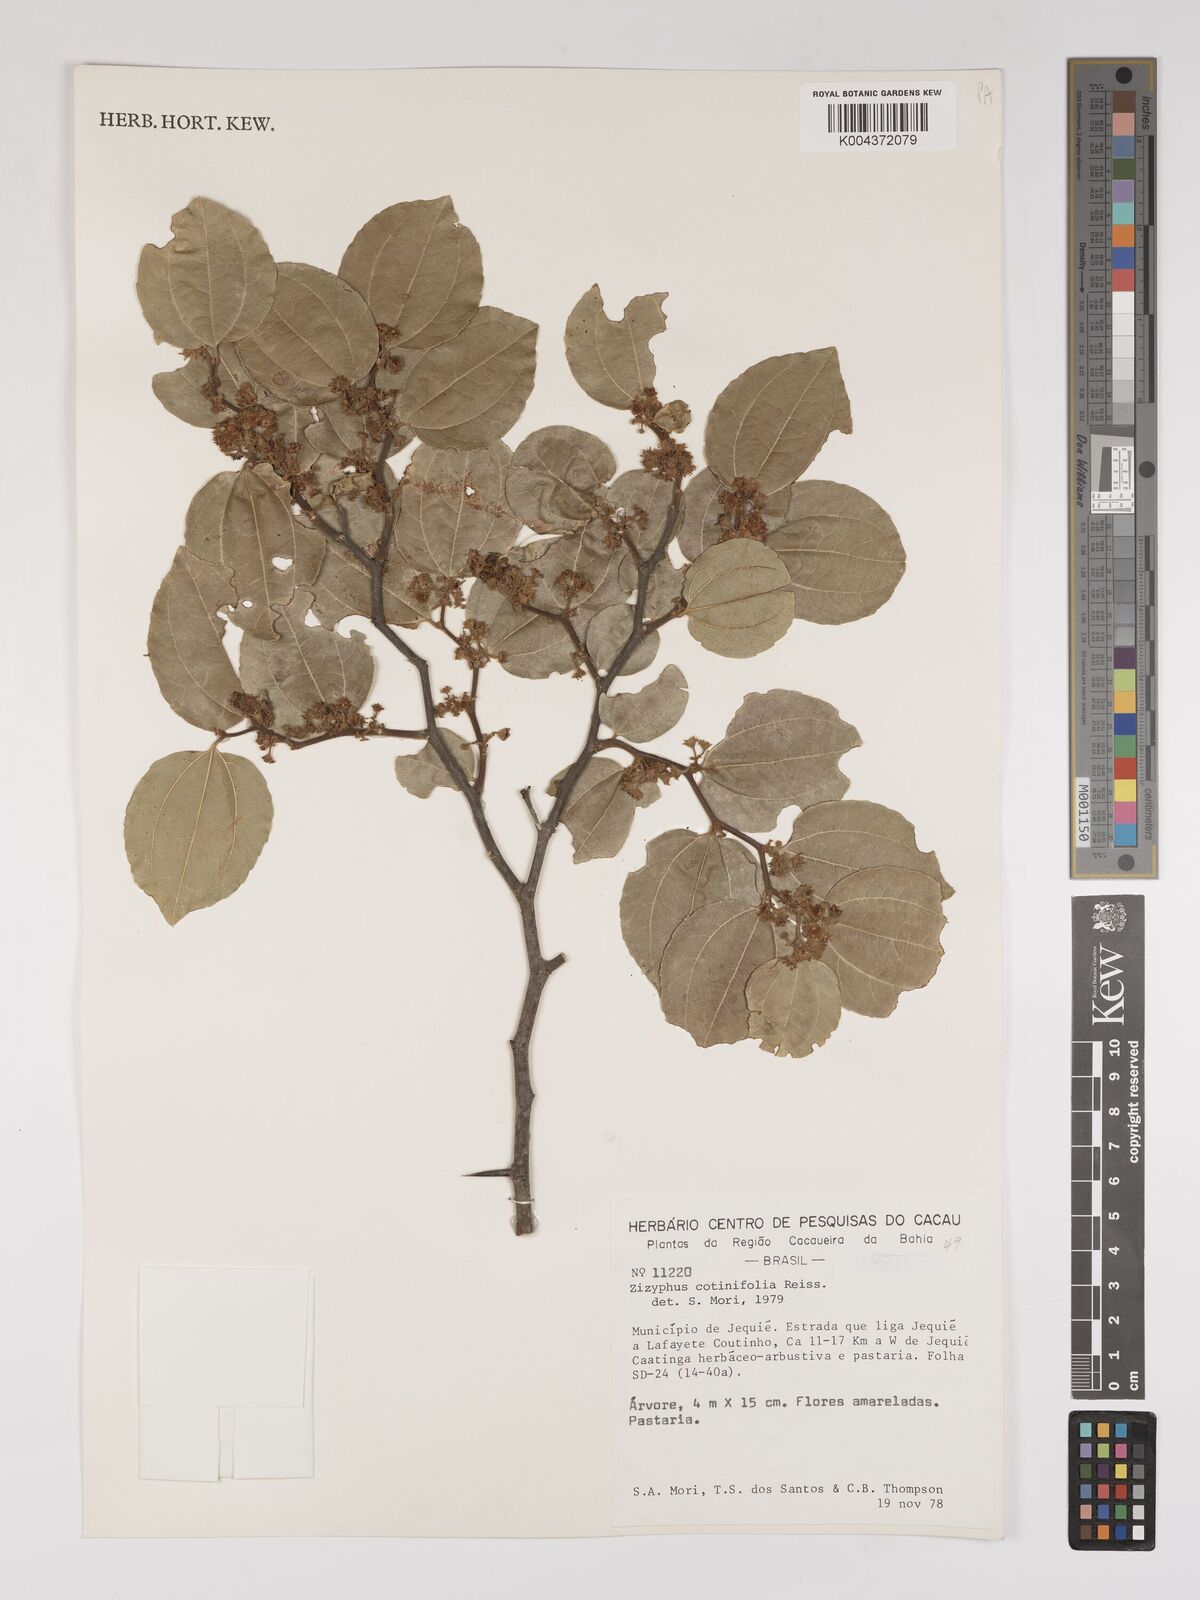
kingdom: Plantae
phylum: Tracheophyta
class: Magnoliopsida
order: Rosales
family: Rhamnaceae
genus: Sarcomphalus
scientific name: Sarcomphalus cotinifolius
